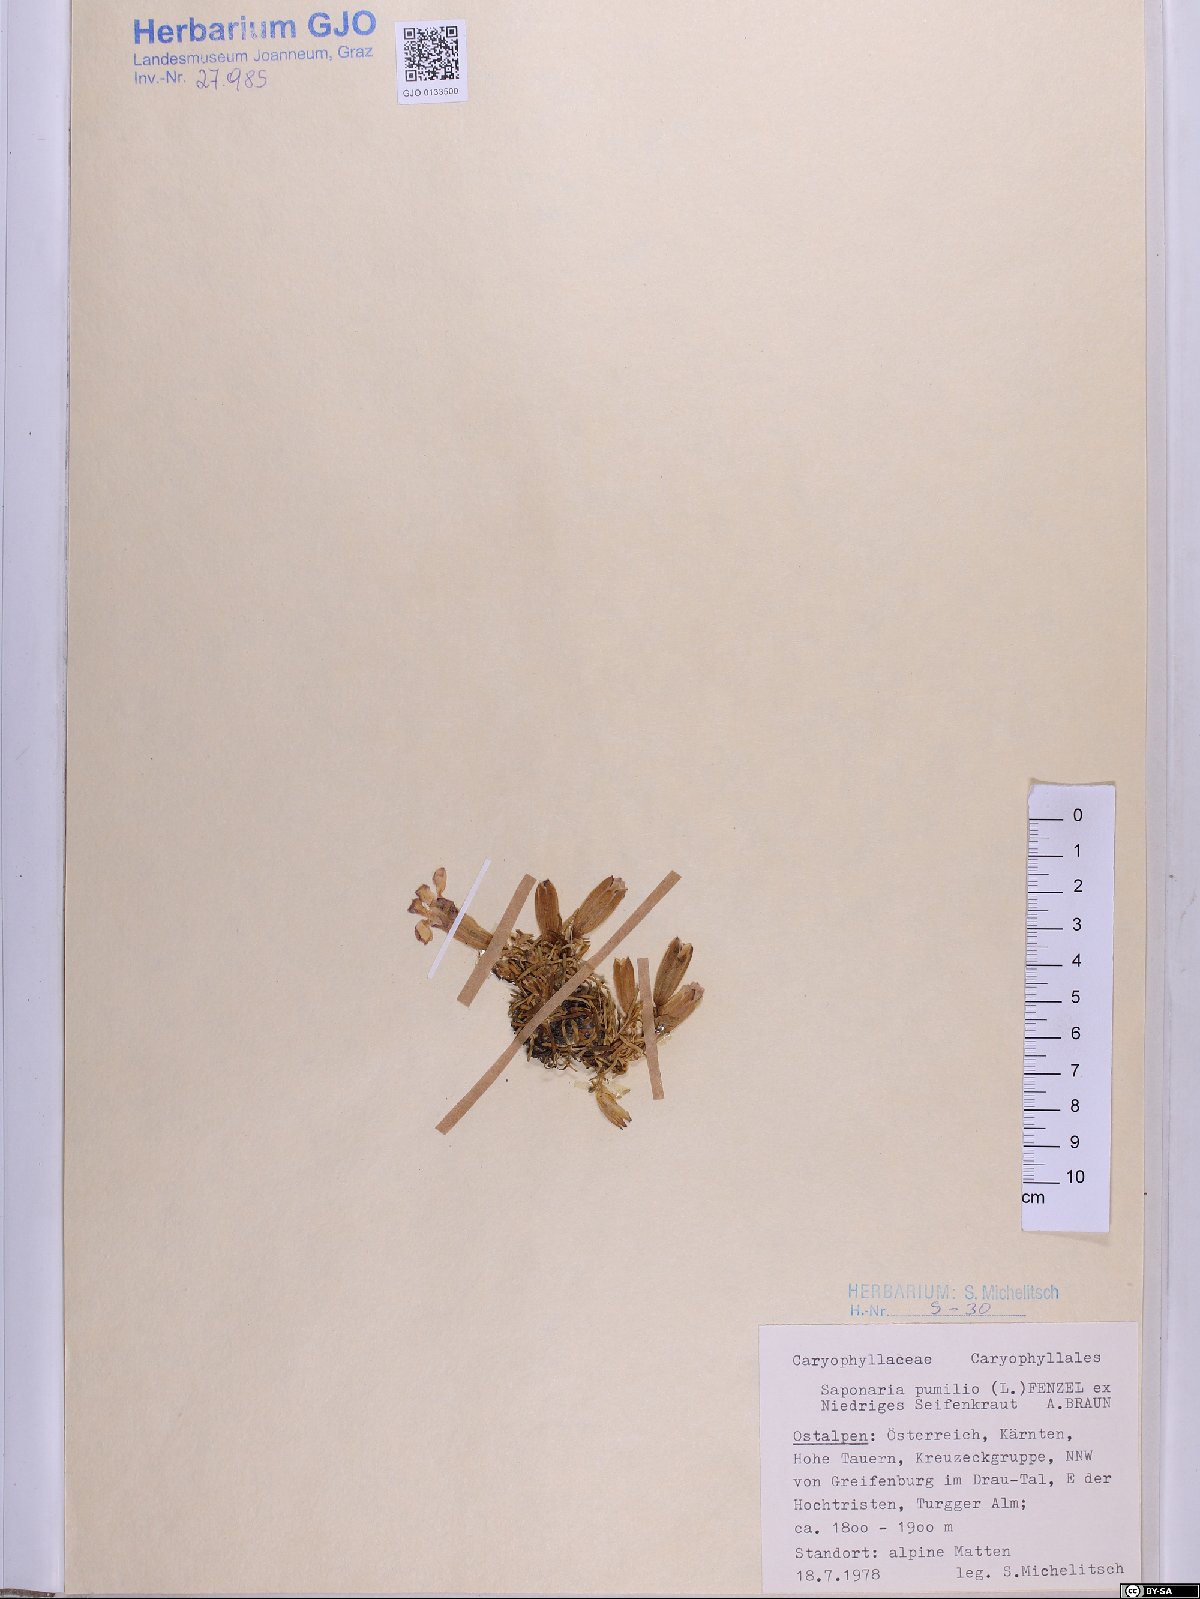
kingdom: Plantae
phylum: Tracheophyta
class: Magnoliopsida
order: Caryophyllales
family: Caryophyllaceae
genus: Saponaria
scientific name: Saponaria pumila
